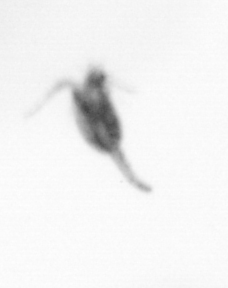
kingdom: Animalia
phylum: Arthropoda
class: Copepoda
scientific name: Copepoda
